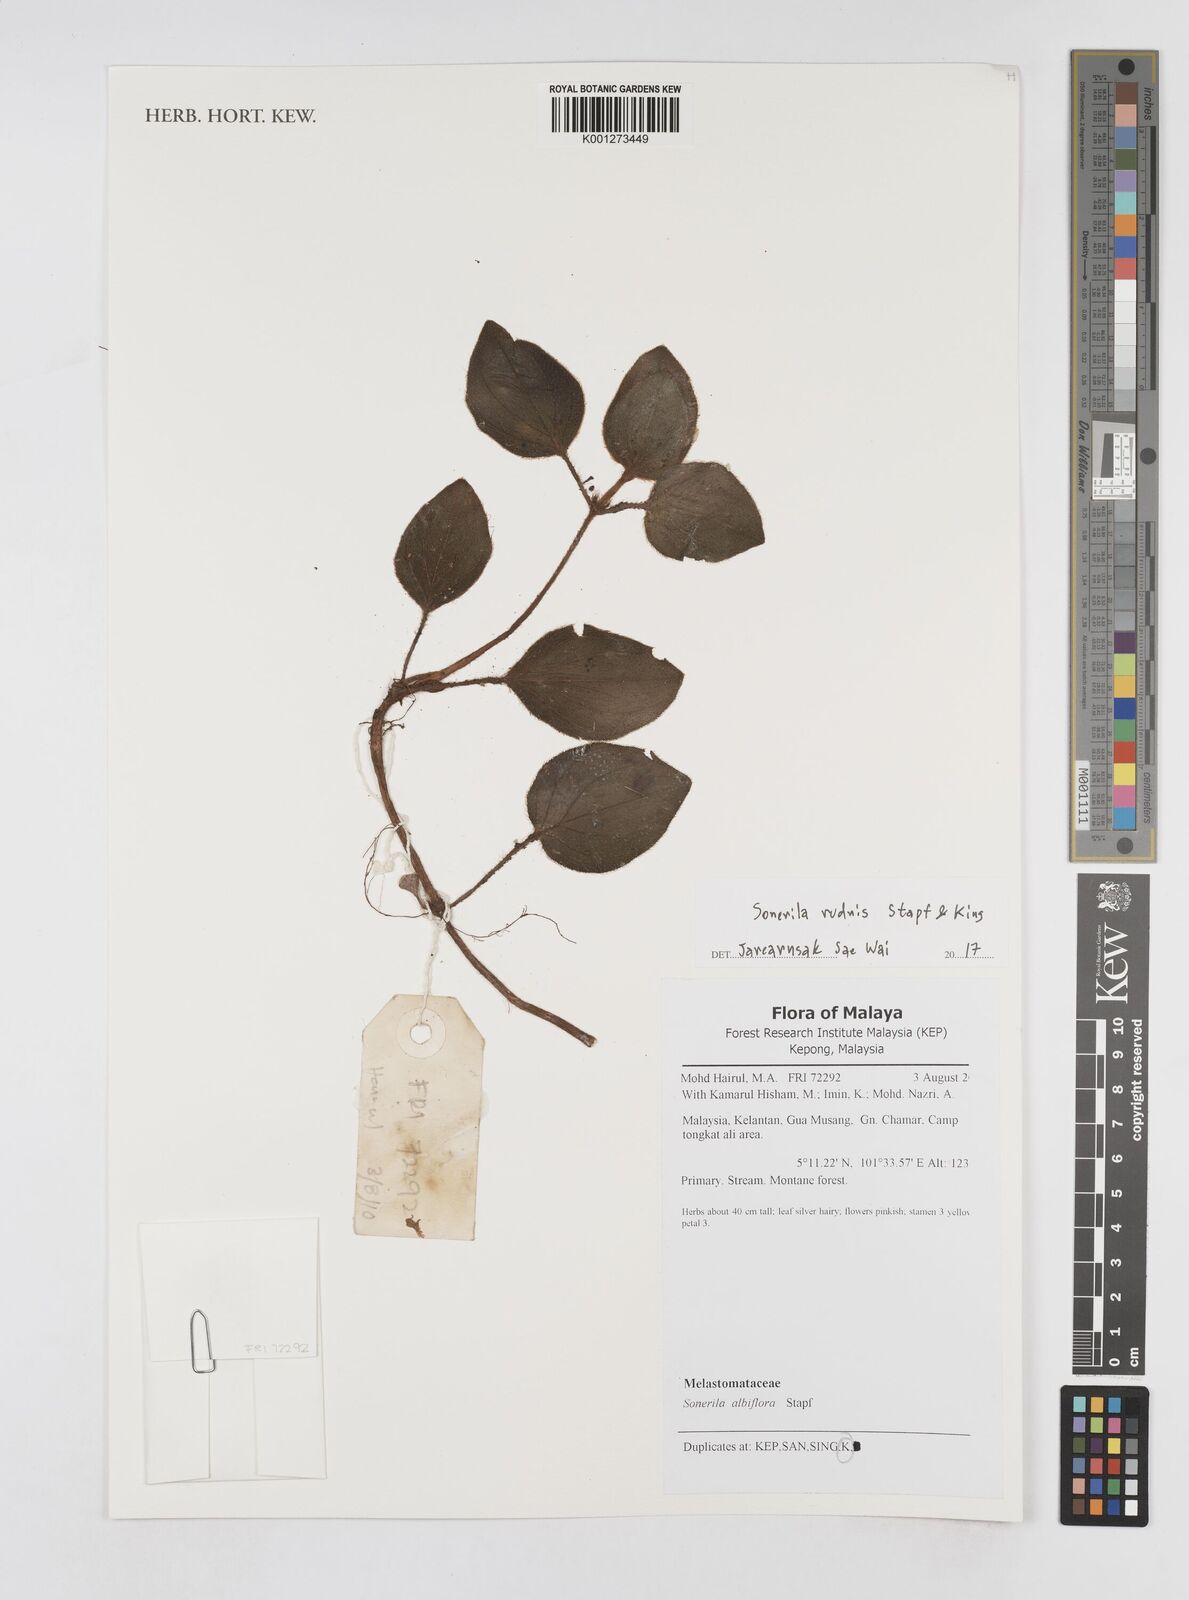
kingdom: Plantae
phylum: Tracheophyta
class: Magnoliopsida
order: Myrtales
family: Melastomataceae
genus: Sonerila
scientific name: Sonerila rudis
